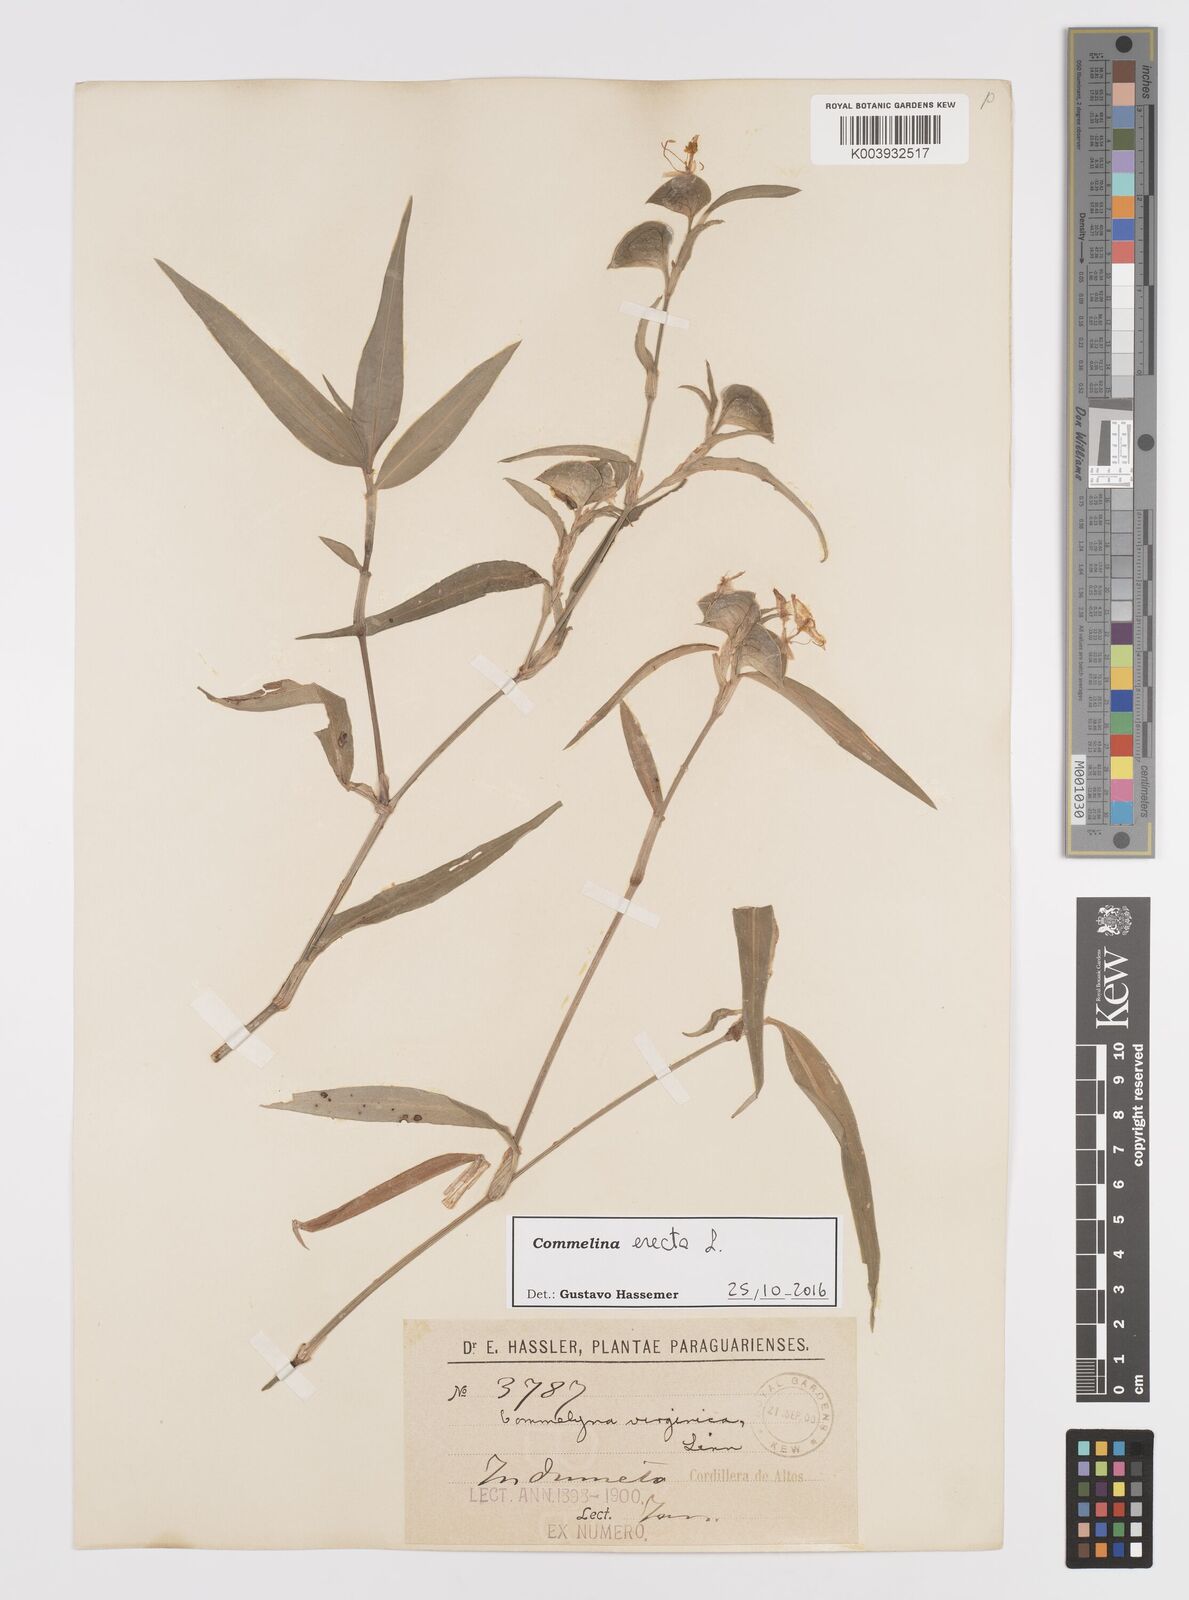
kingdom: Plantae
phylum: Tracheophyta
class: Liliopsida
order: Commelinales
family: Commelinaceae
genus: Commelina
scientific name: Commelina erecta
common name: Blousel blommetjie
